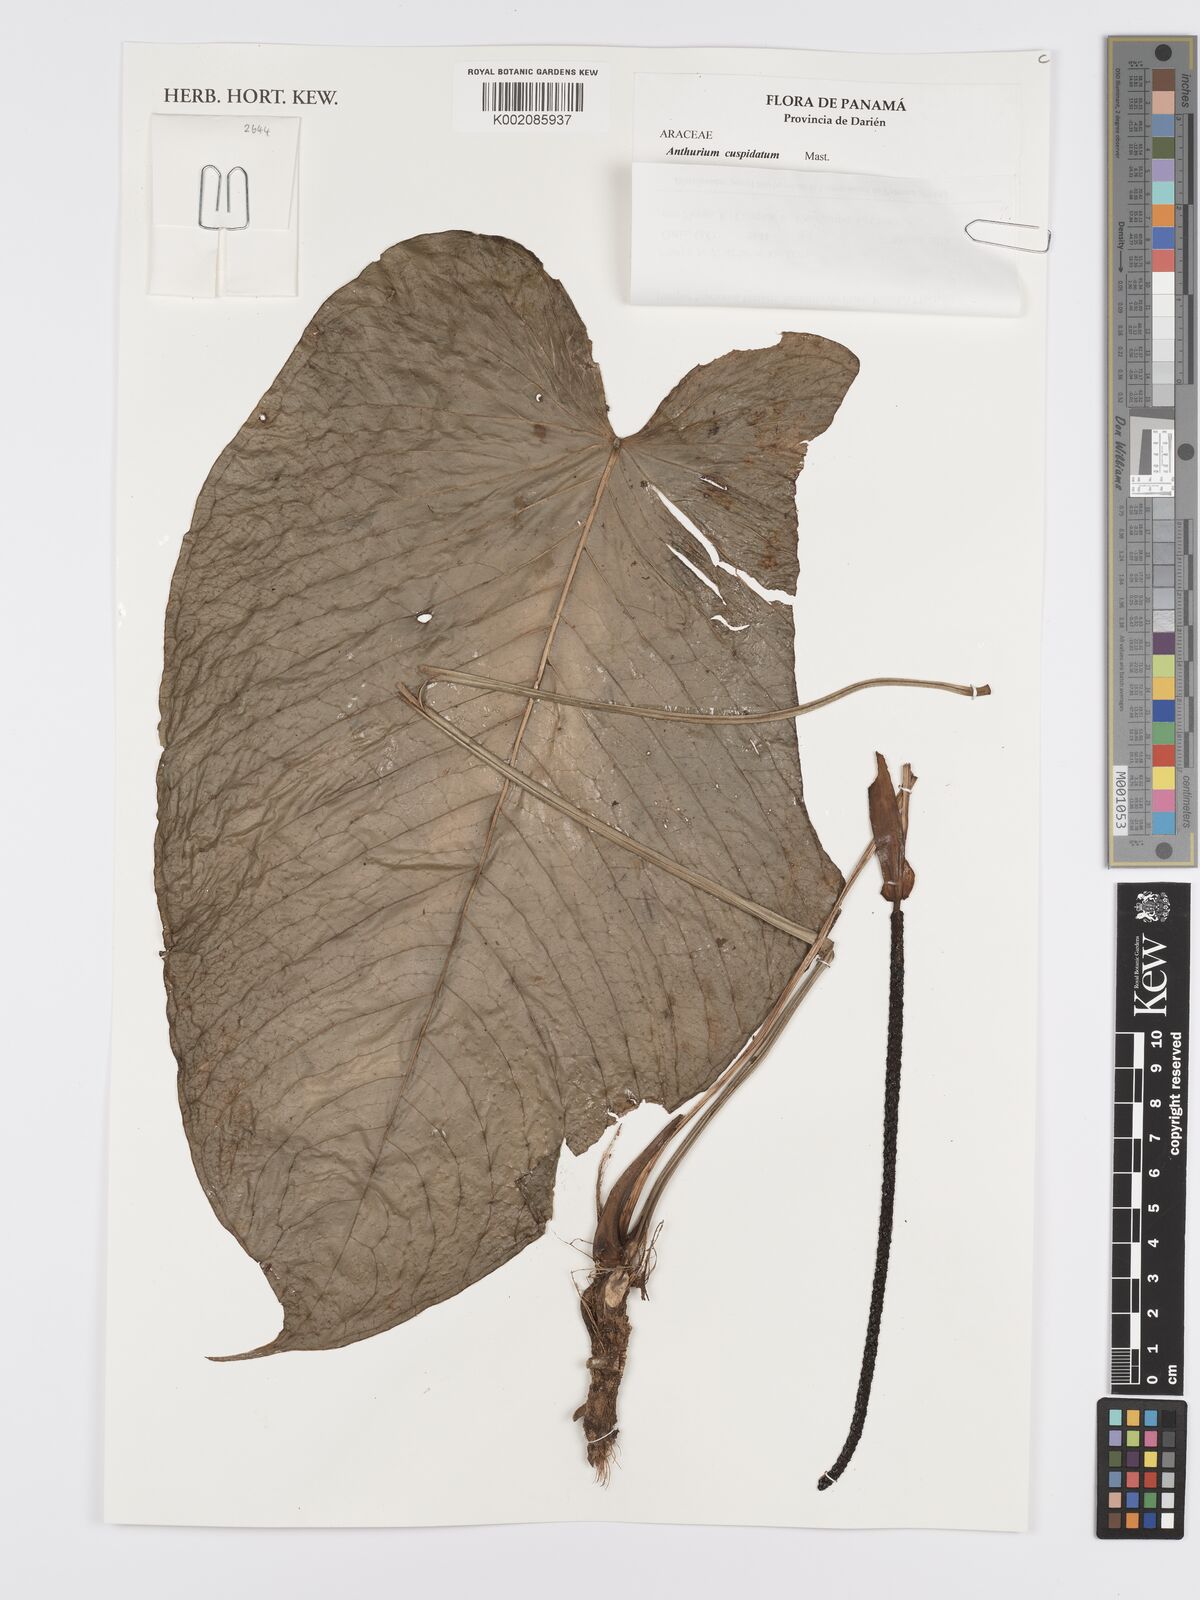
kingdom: Plantae
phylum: Tracheophyta
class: Liliopsida
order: Alismatales
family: Araceae
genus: Anthurium
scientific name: Anthurium cuspidatum
